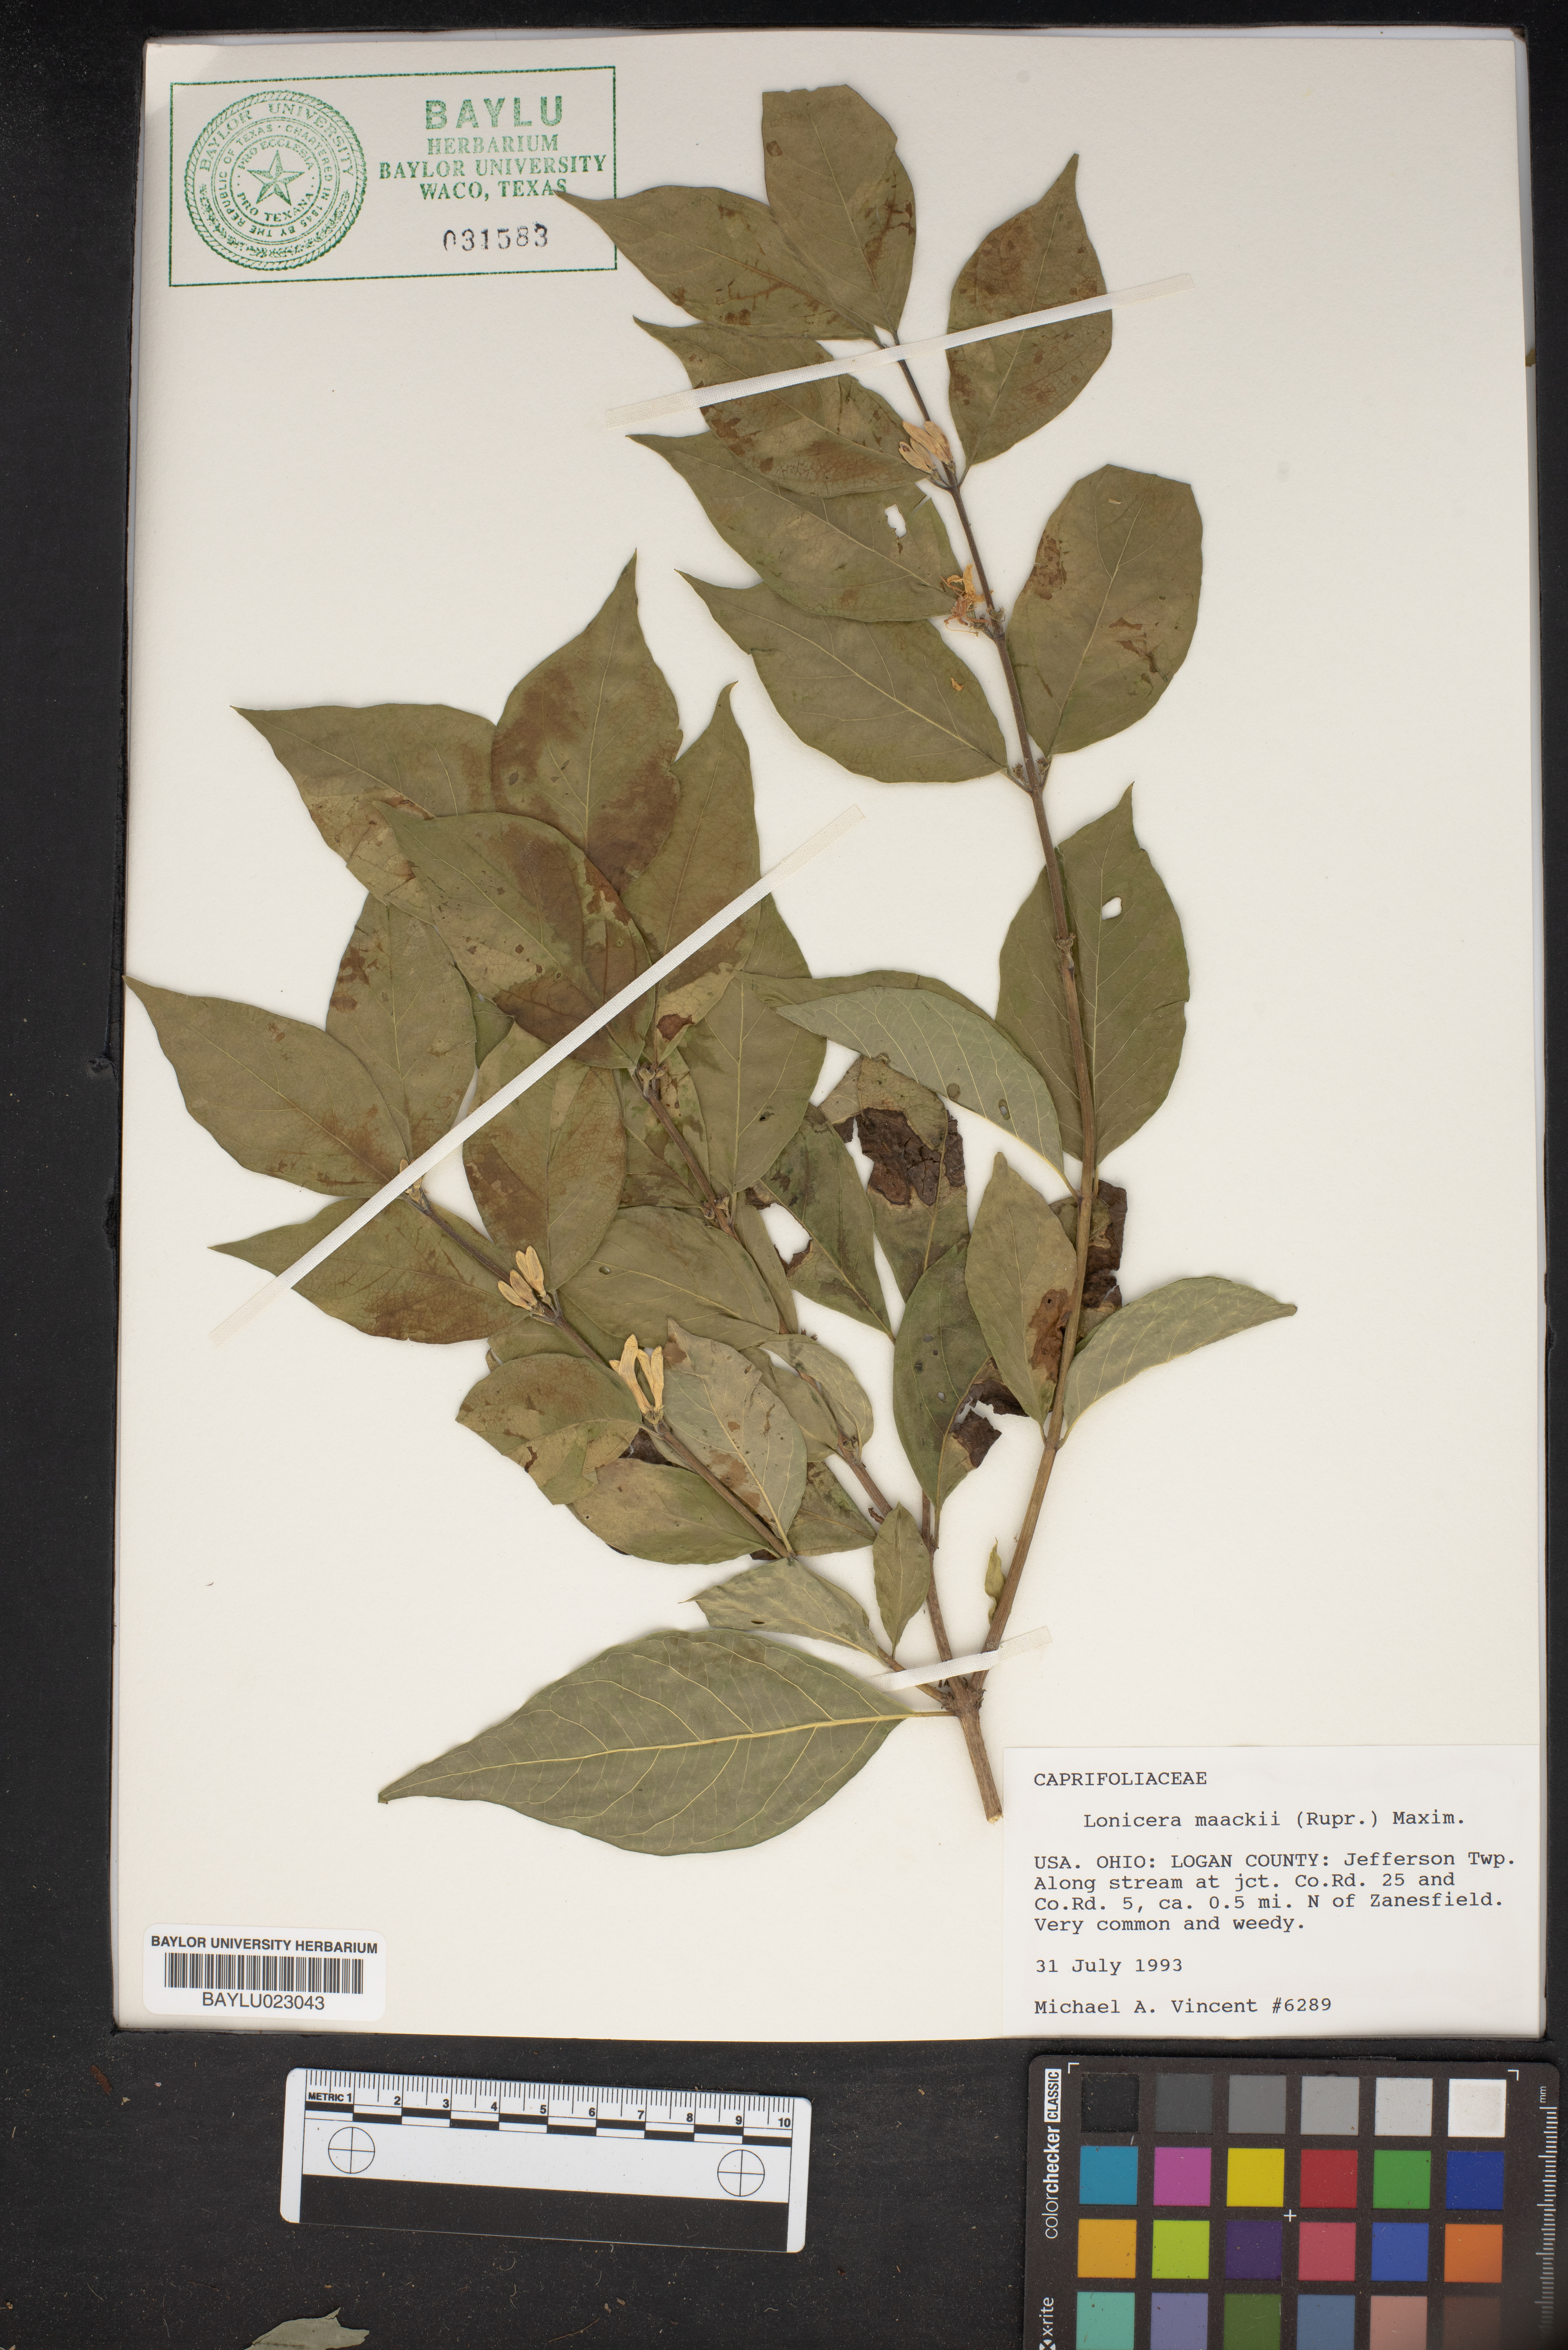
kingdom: Plantae
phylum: Tracheophyta
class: Magnoliopsida
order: Dipsacales
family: Caprifoliaceae
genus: Lonicera
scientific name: Lonicera maackii
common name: Amur honeysuckle
